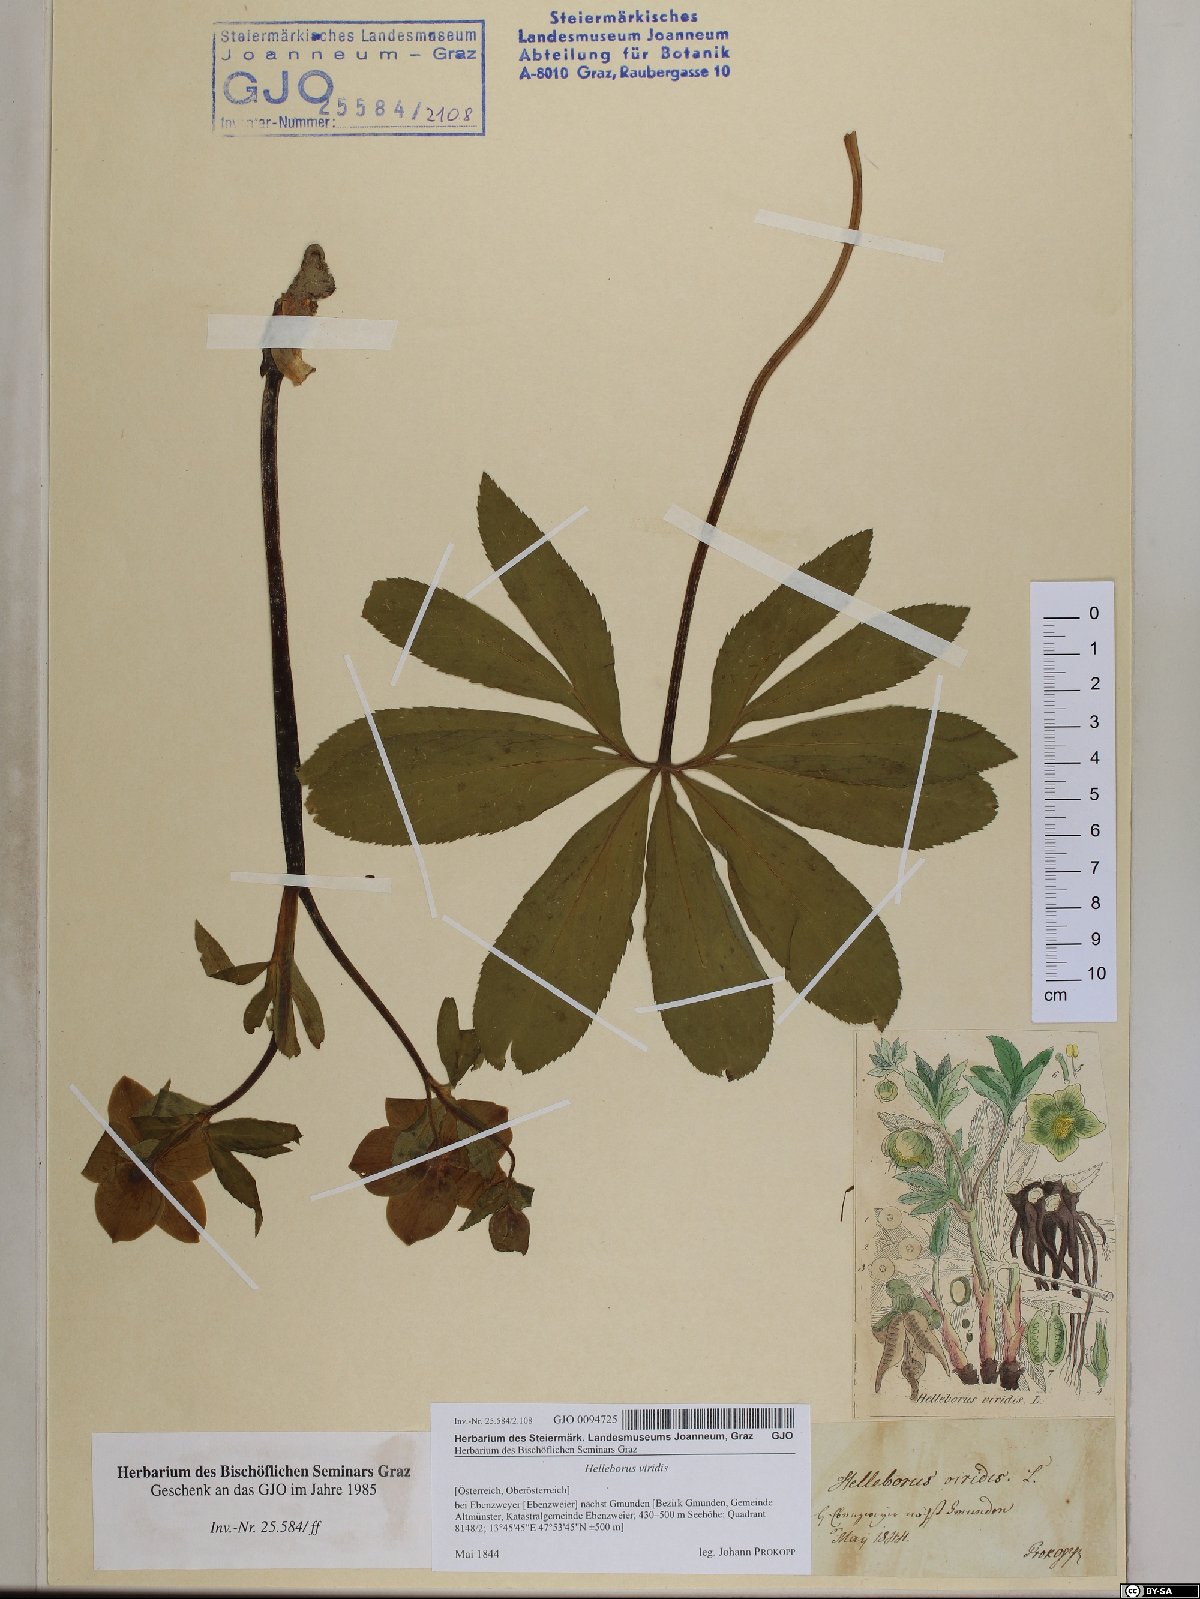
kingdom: Plantae
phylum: Tracheophyta
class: Magnoliopsida
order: Ranunculales
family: Ranunculaceae
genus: Helleborus
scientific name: Helleborus viridis
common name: Green hellebore
